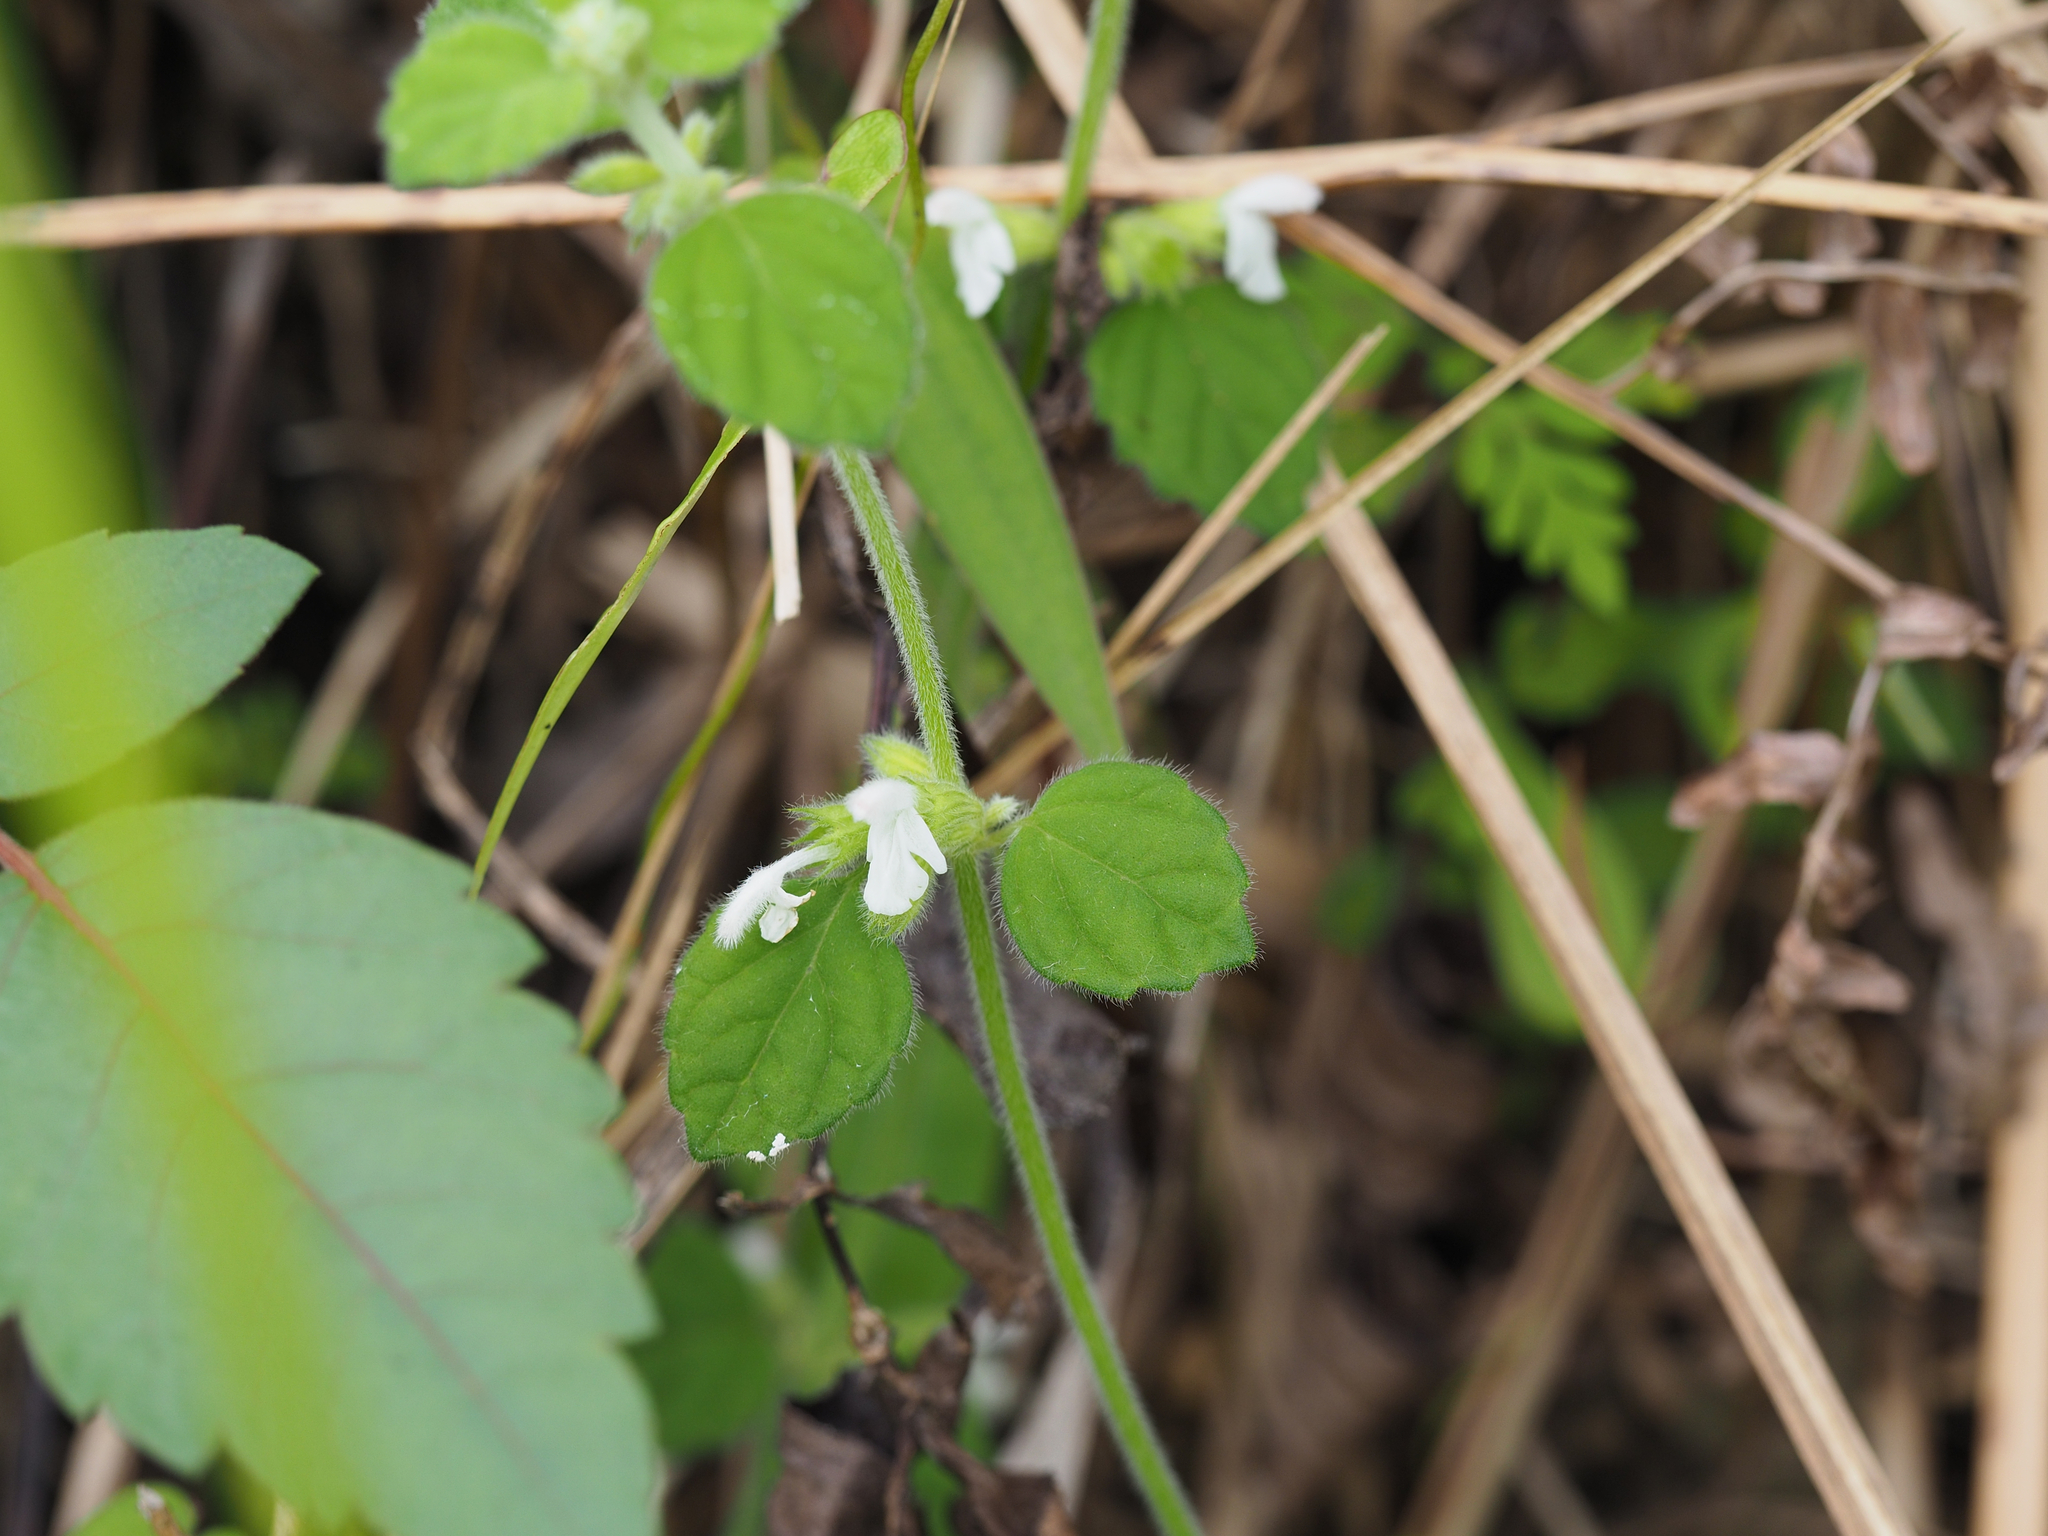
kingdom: Plantae
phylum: Tracheophyta
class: Magnoliopsida
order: Lamiales
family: Lamiaceae
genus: Leucas
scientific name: Leucas chinensis
